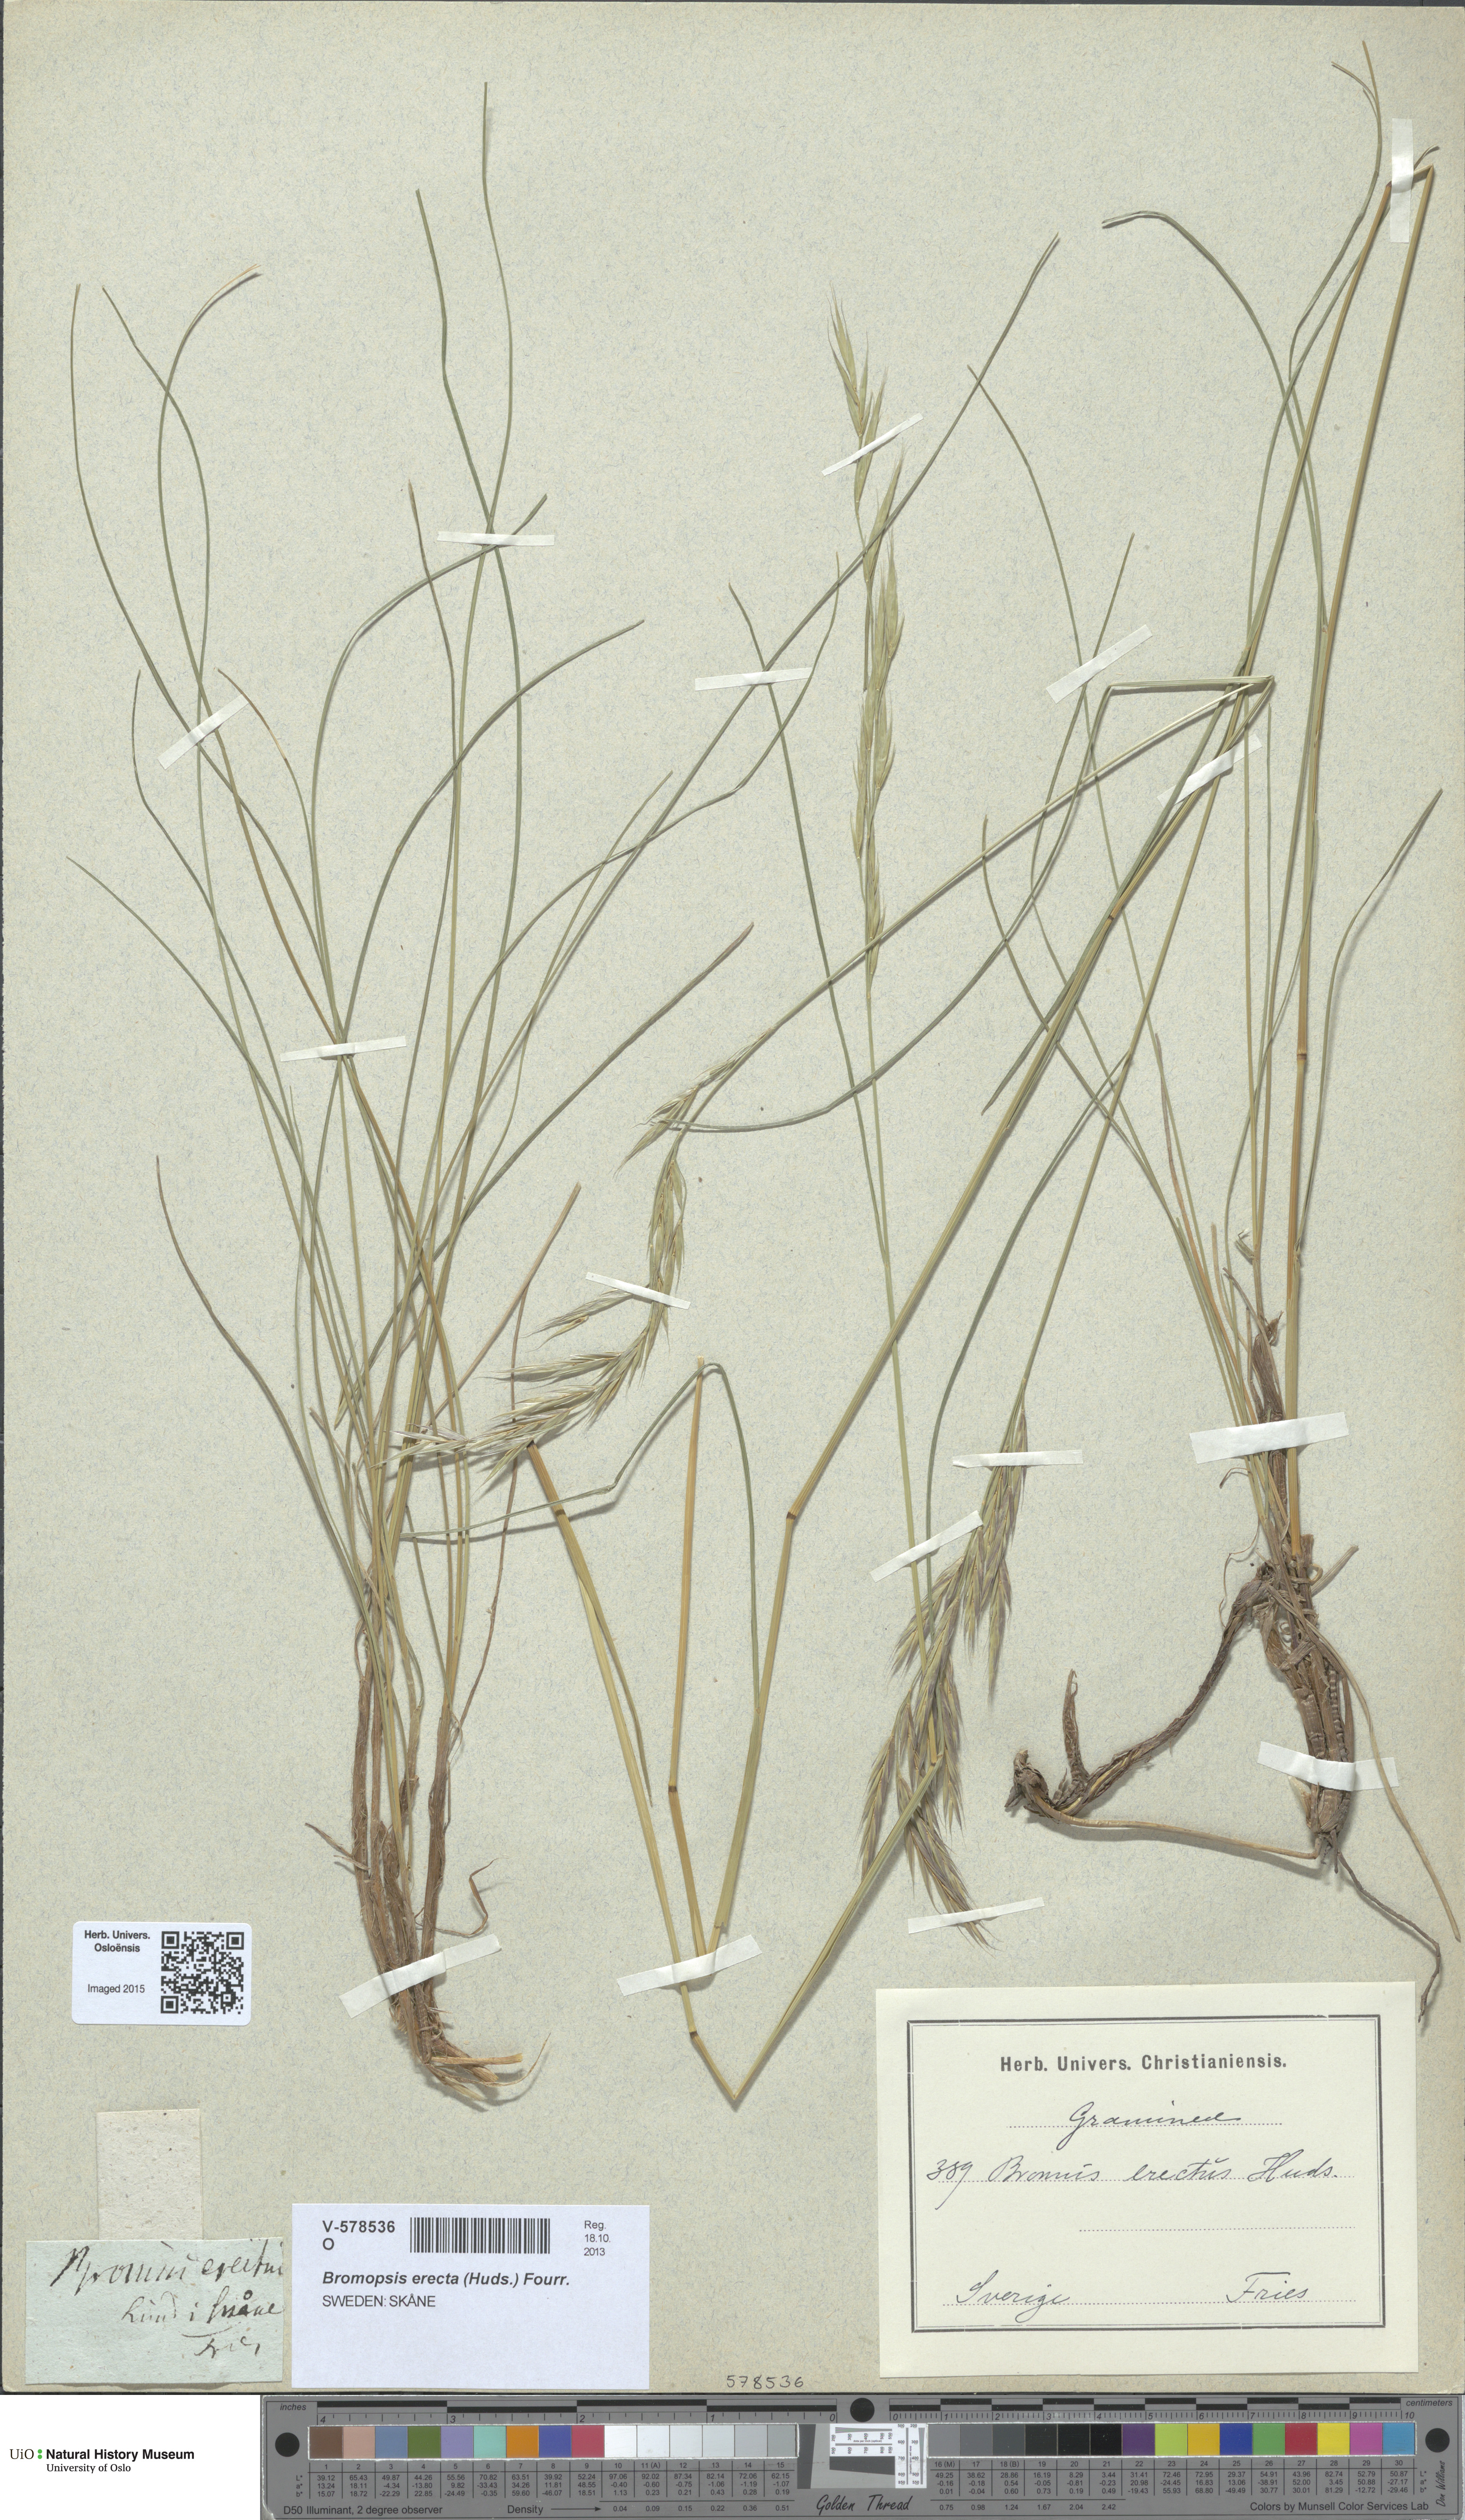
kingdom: Plantae
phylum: Tracheophyta
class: Liliopsida
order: Poales
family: Poaceae
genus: Bromus
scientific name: Bromus erectus
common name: Erect brome
